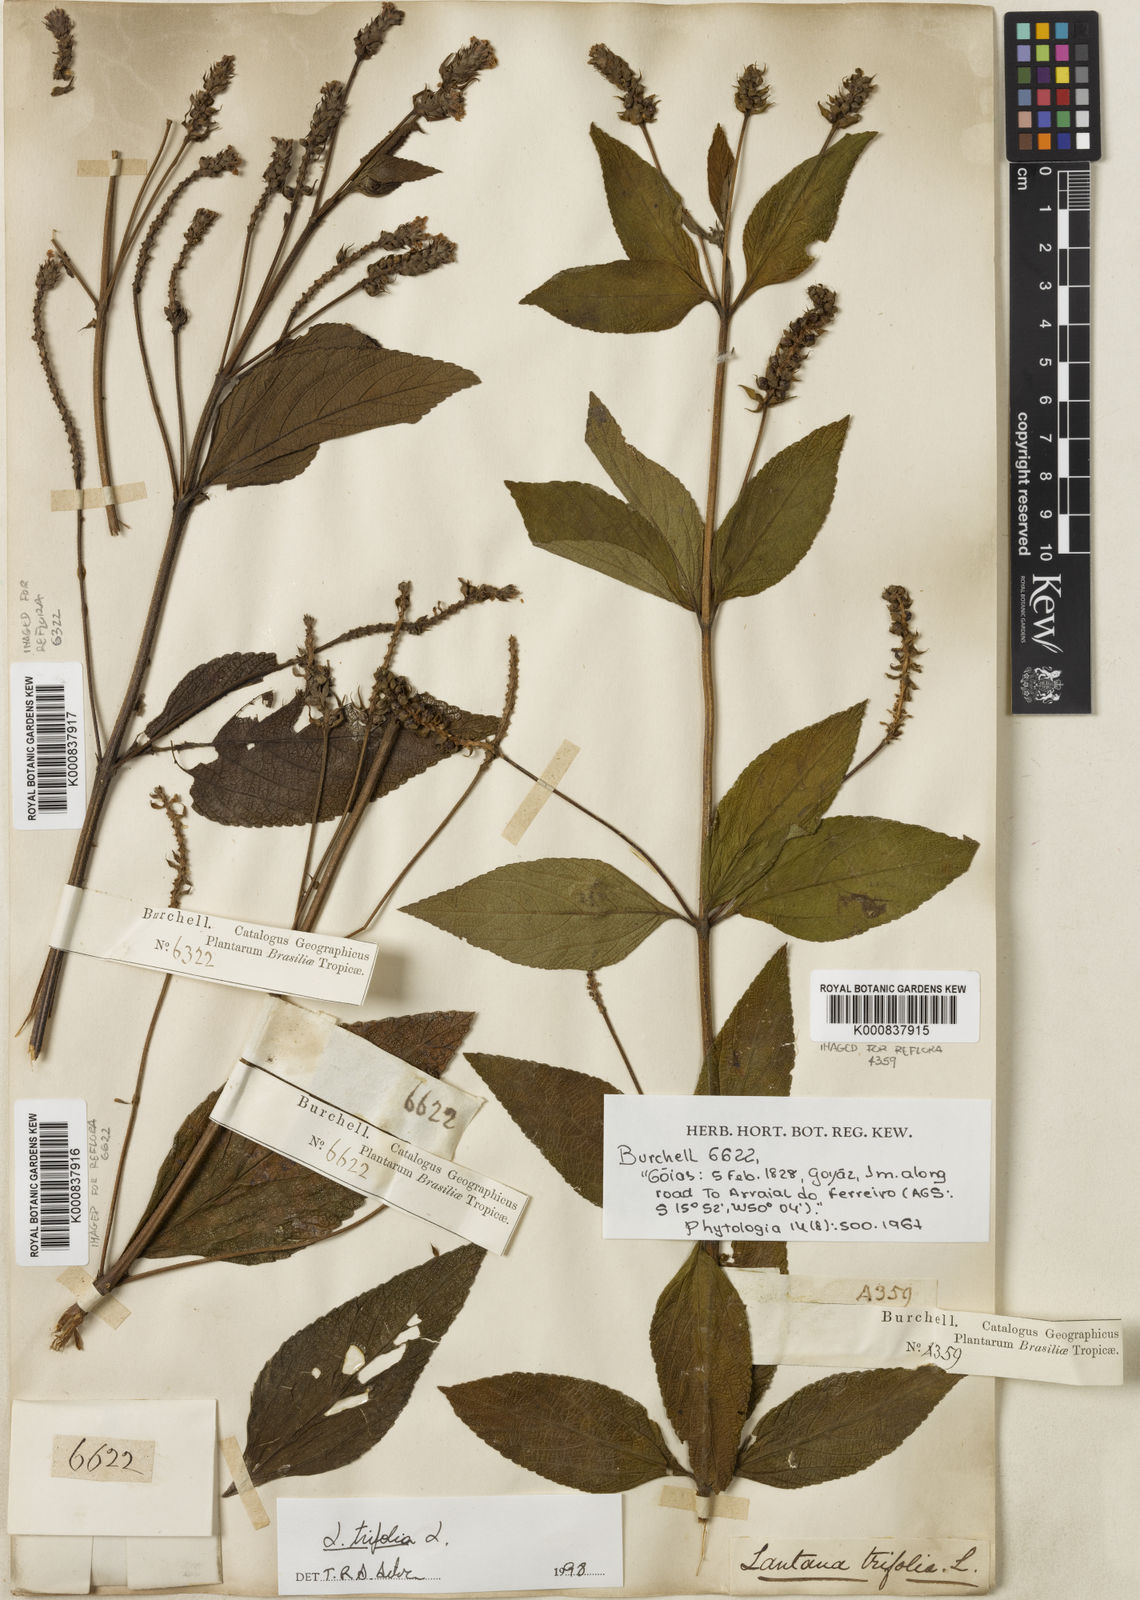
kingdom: Plantae
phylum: Tracheophyta
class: Magnoliopsida
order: Lamiales
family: Verbenaceae
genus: Lantana
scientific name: Lantana trifolia
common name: Sweet-sage
